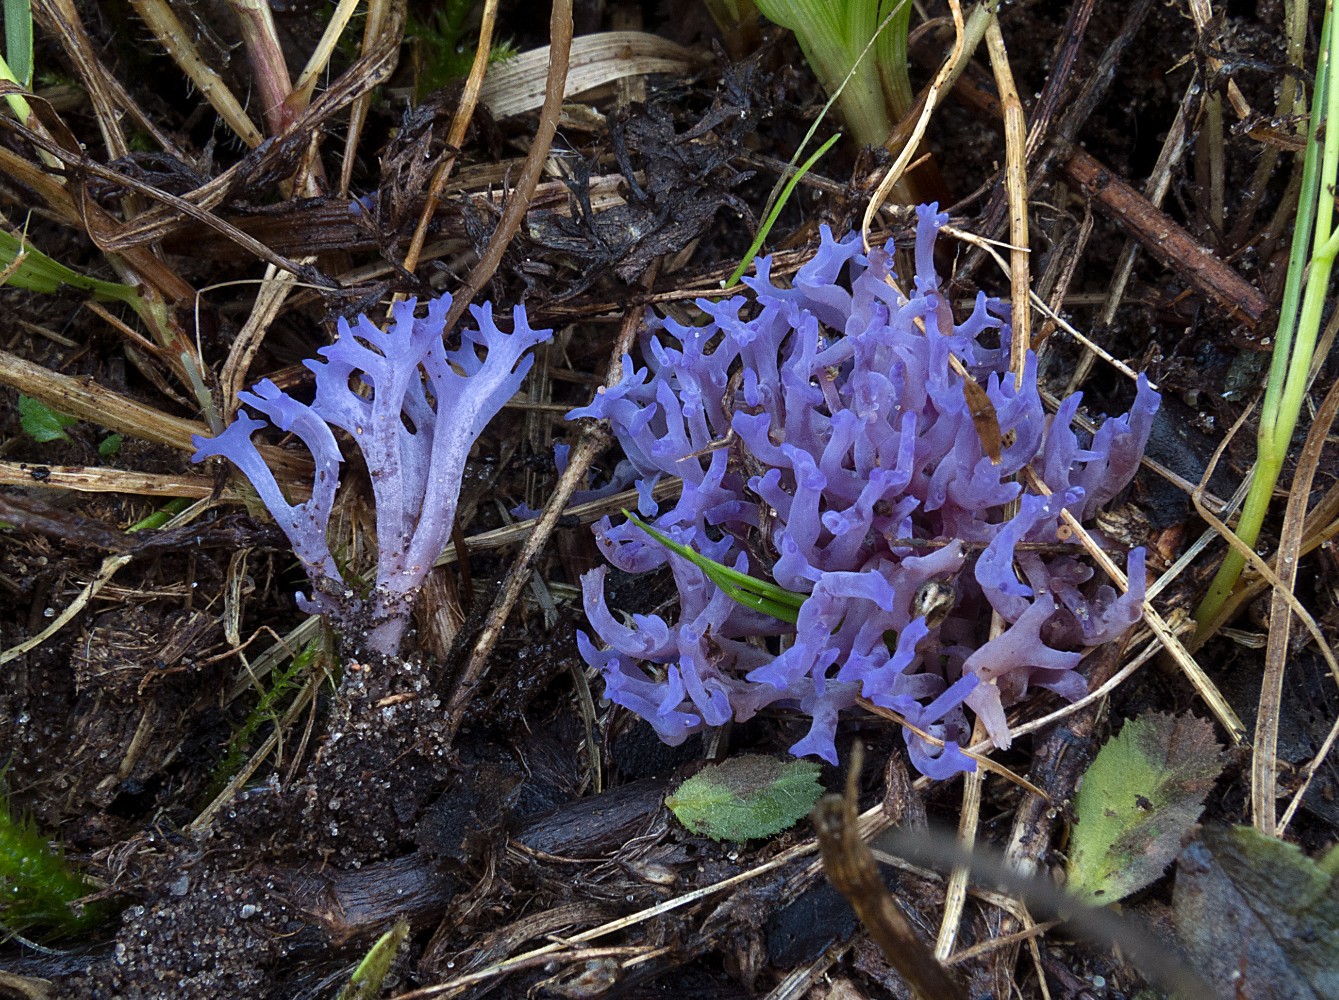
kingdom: Fungi
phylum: Basidiomycota
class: Agaricomycetes
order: Agaricales
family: Clavariaceae
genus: Ramariopsis
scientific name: Ramariopsis pulchella
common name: violet køllesvamp
